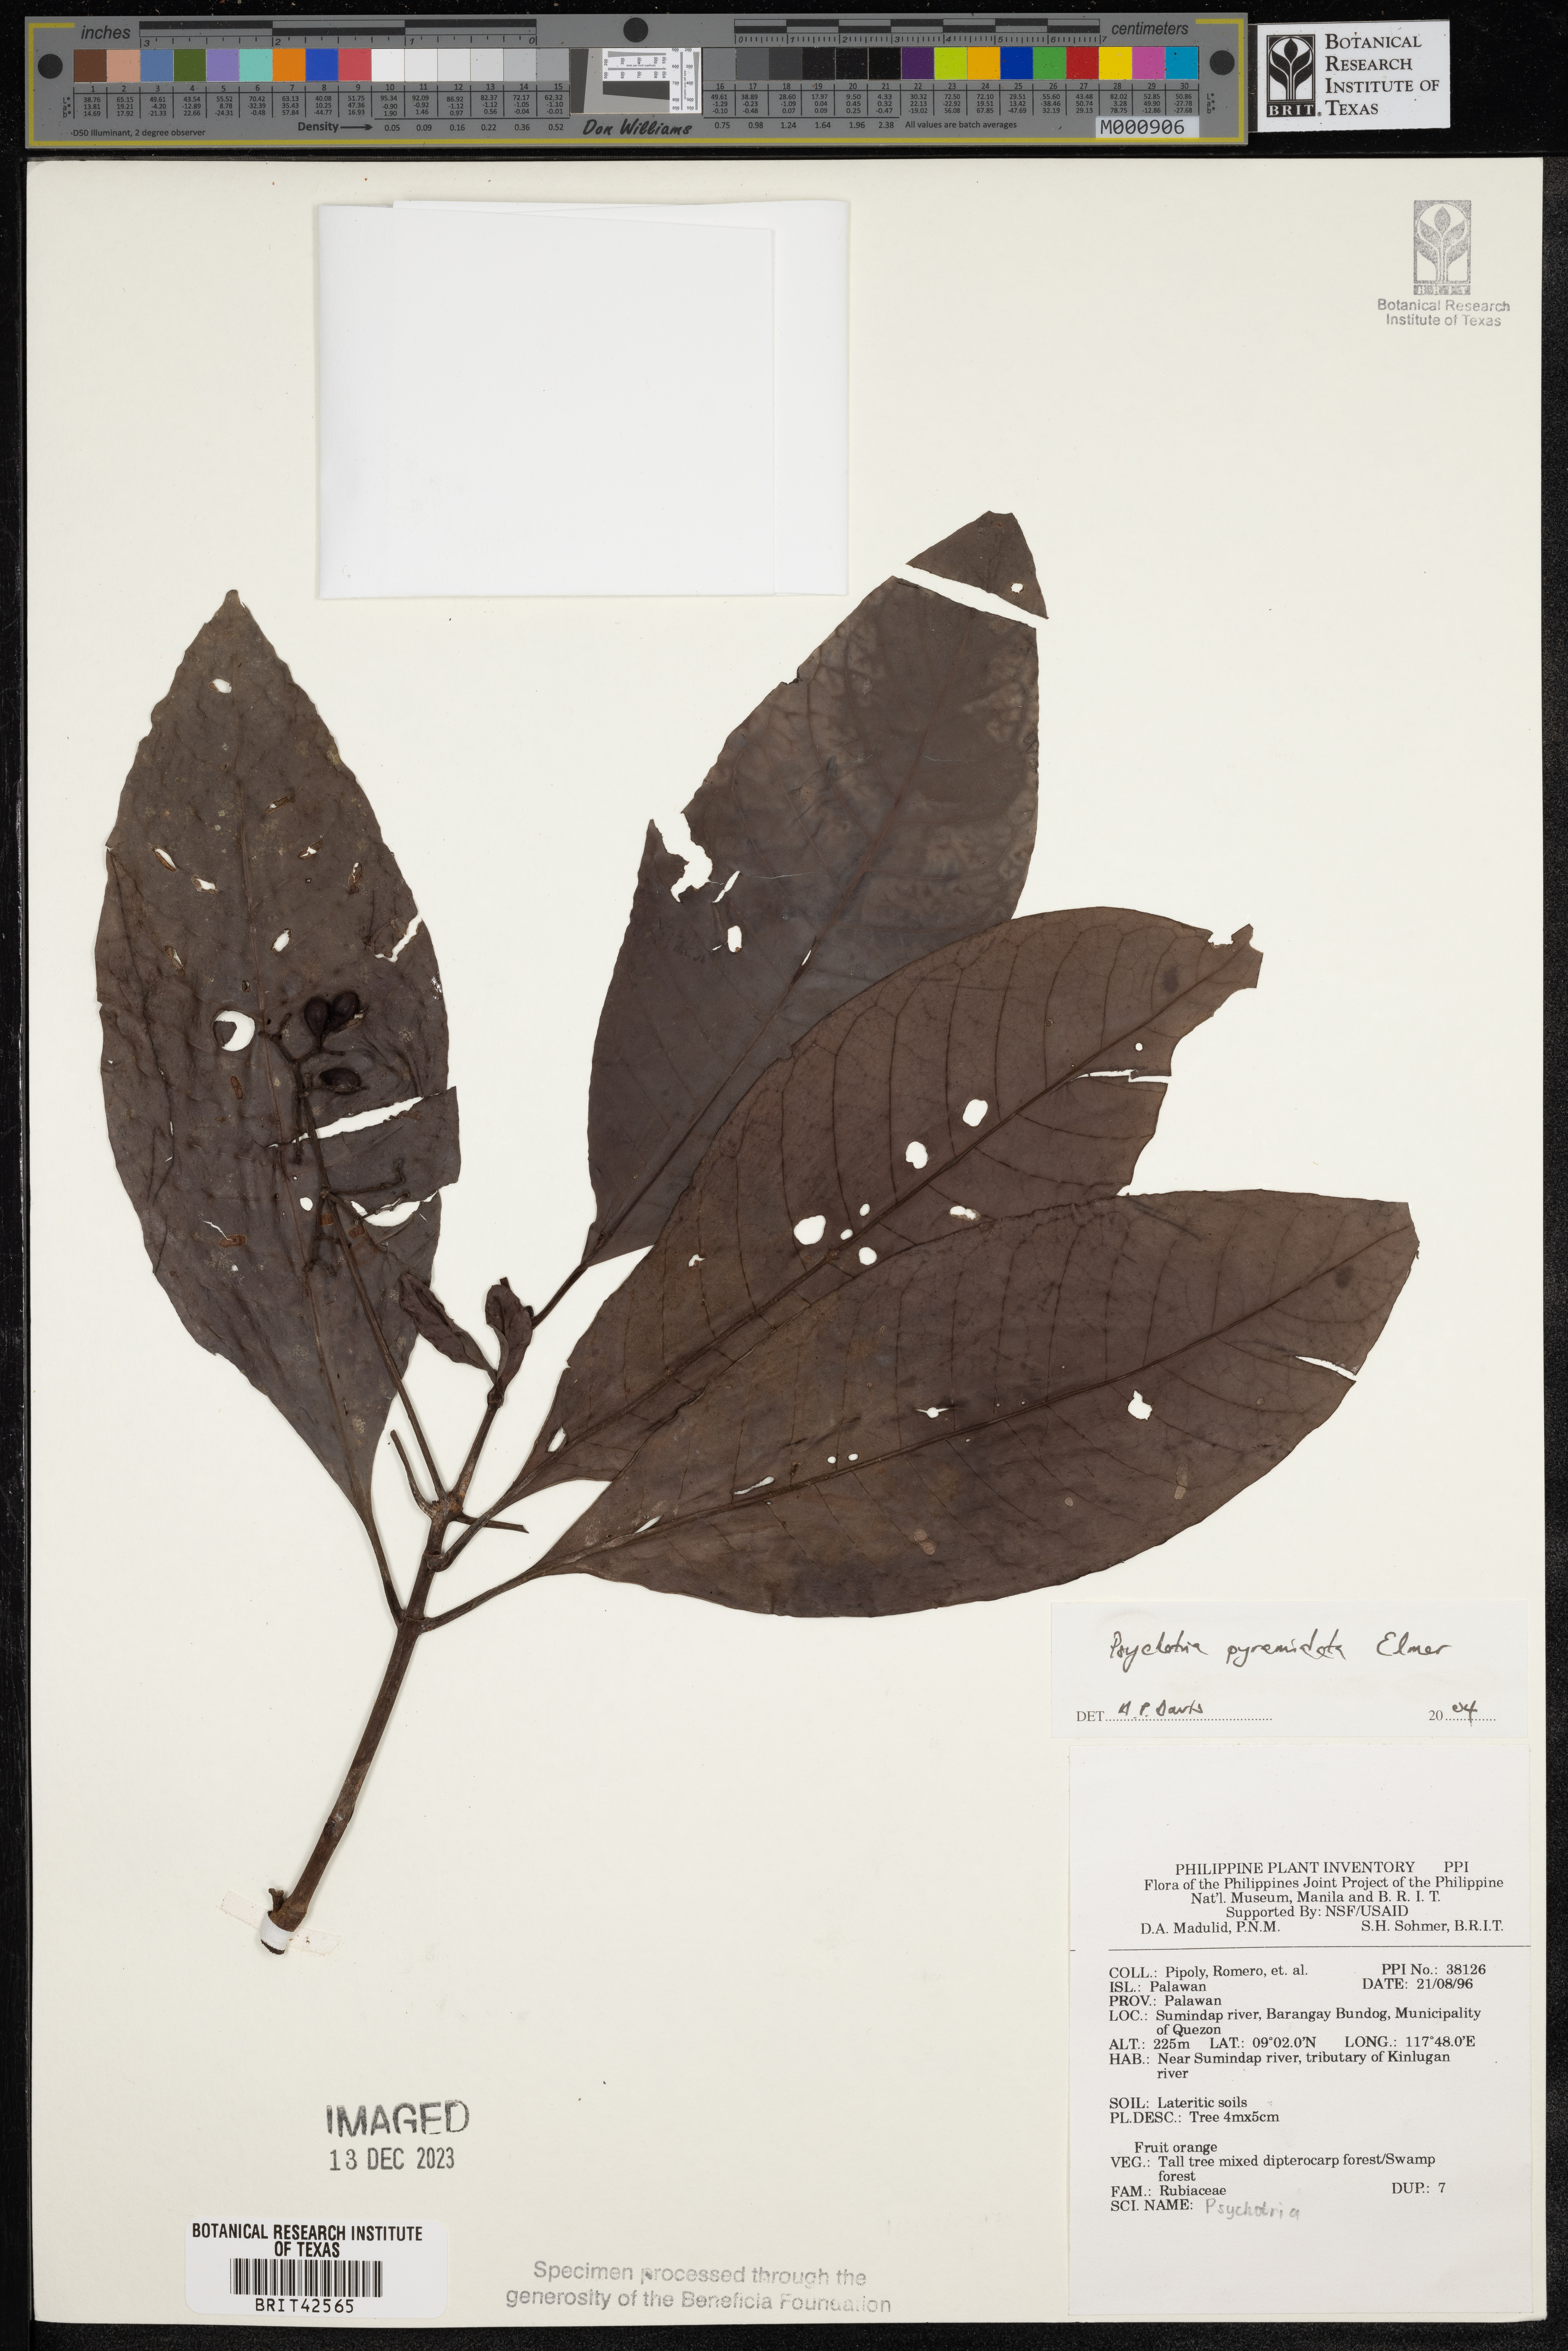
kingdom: Plantae
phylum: Tracheophyta
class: Magnoliopsida
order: Gentianales
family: Rubiaceae
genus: Psychotria
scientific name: Psychotria pyramidata
